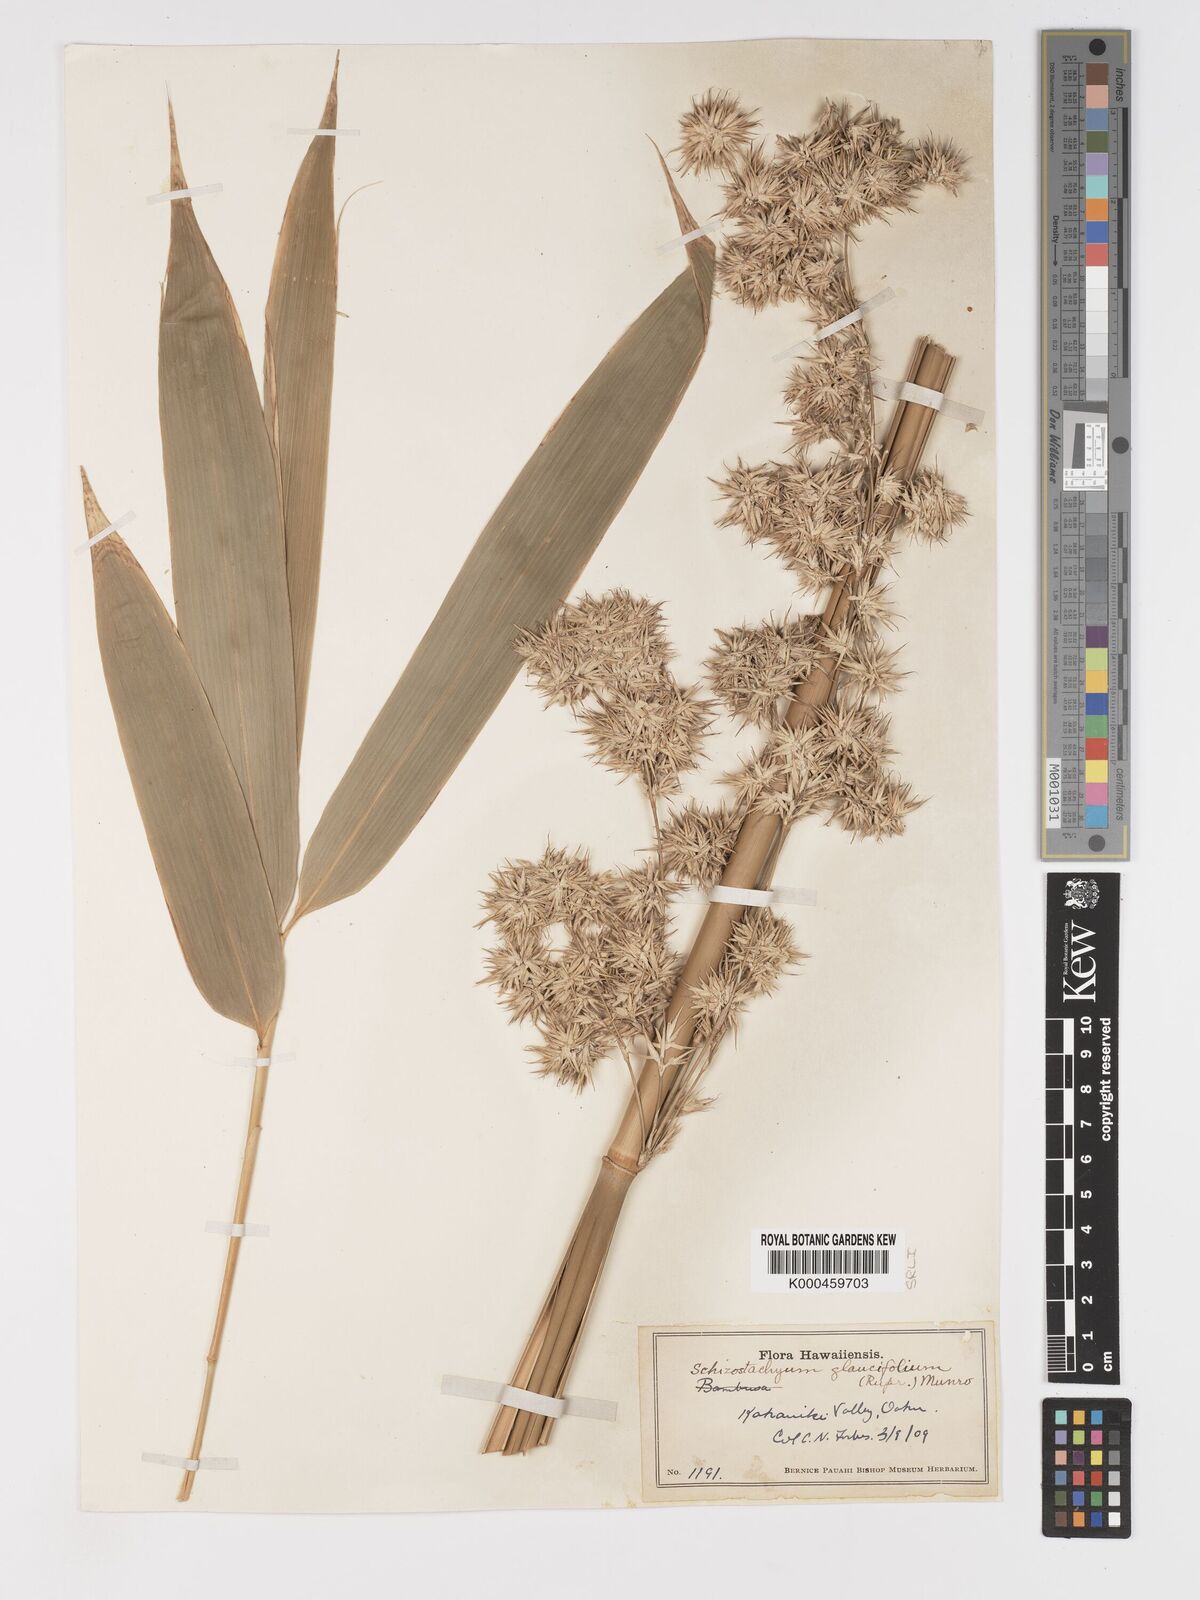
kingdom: Plantae
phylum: Tracheophyta
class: Liliopsida
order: Poales
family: Poaceae
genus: Schizostachyum
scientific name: Schizostachyum glaucifolium
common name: Polynesian 'ohe
